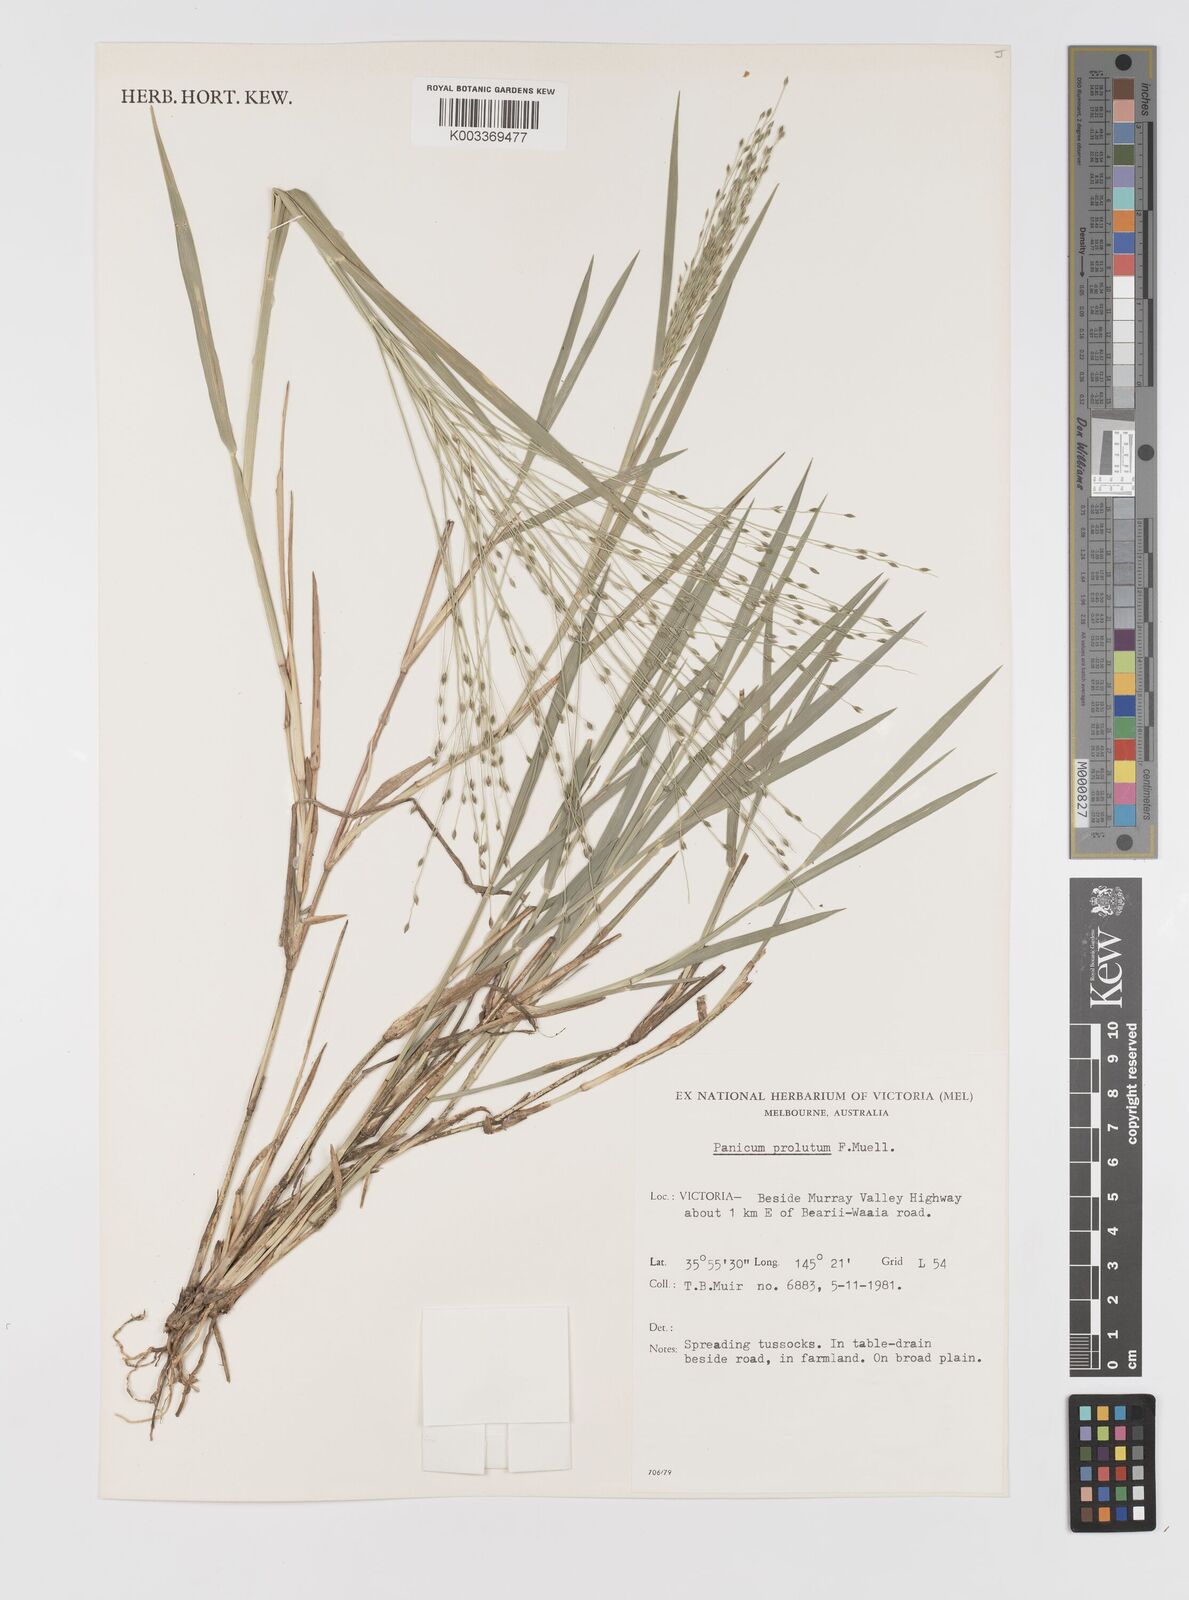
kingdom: Plantae
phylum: Tracheophyta
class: Liliopsida
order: Poales
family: Poaceae
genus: Walwhalleya
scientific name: Walwhalleya proluta
